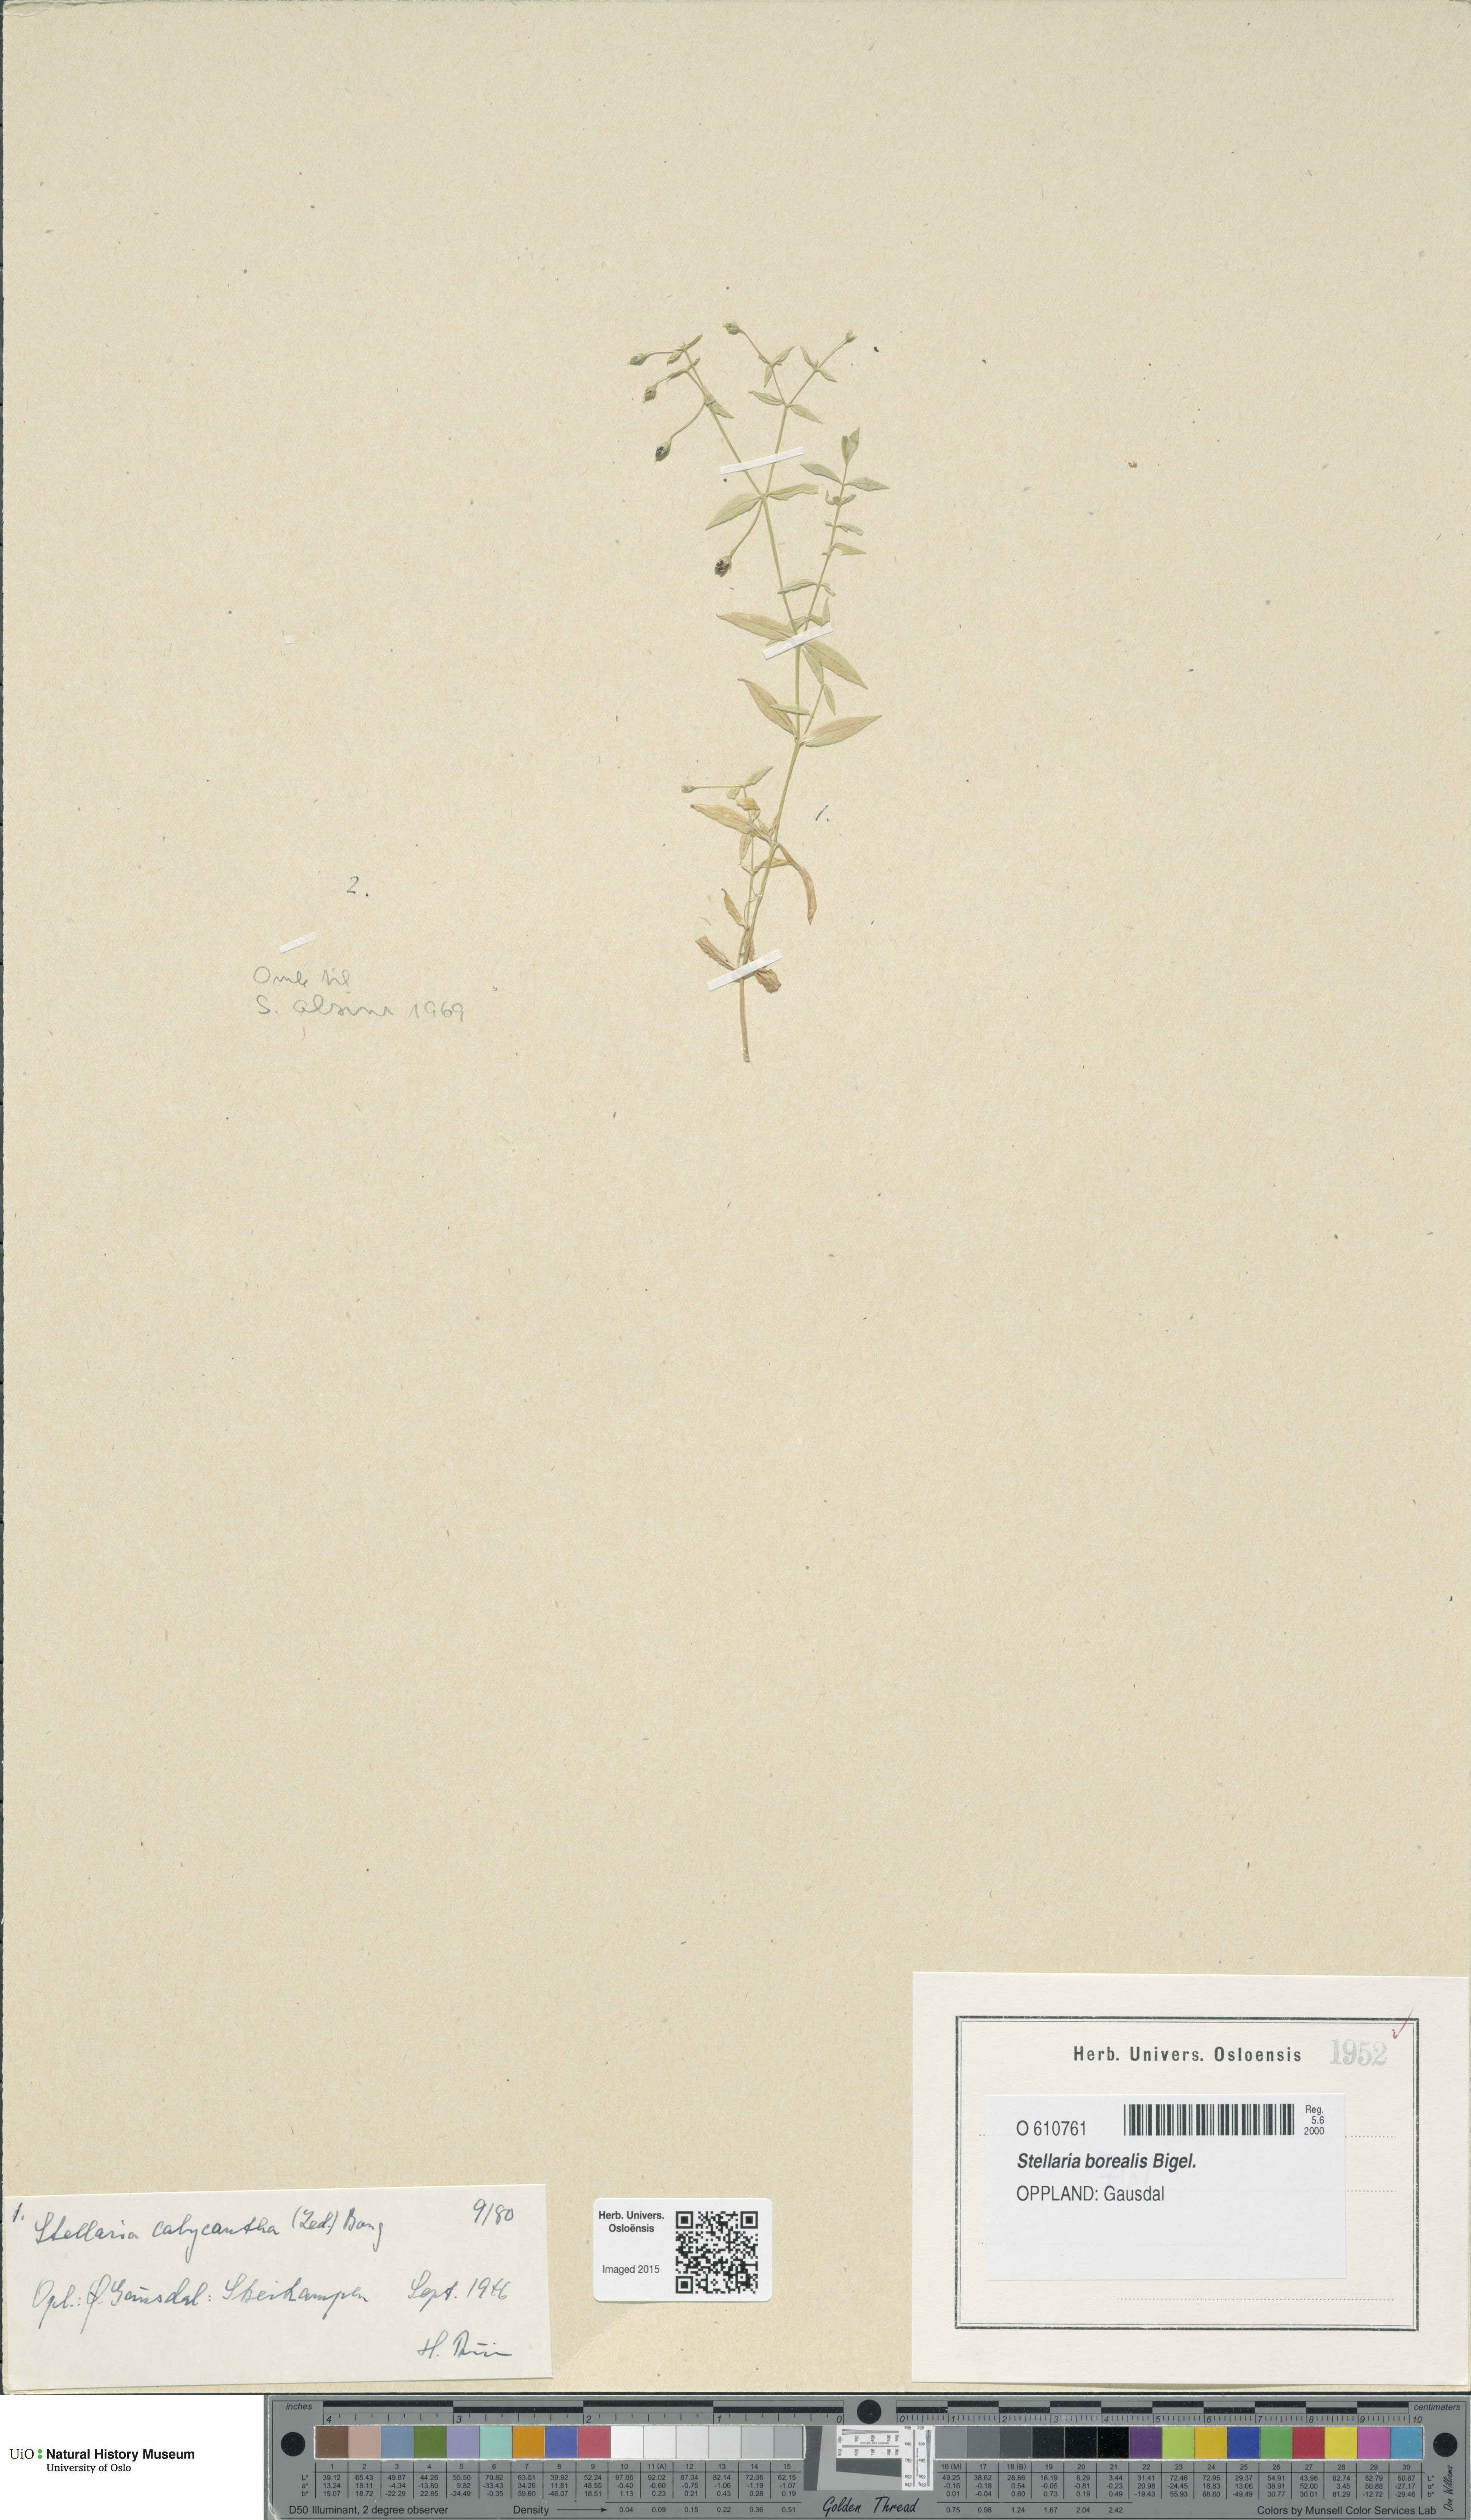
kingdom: Plantae
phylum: Tracheophyta
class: Magnoliopsida
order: Caryophyllales
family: Caryophyllaceae
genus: Stellaria
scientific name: Stellaria borealis
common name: Boreal starwort
